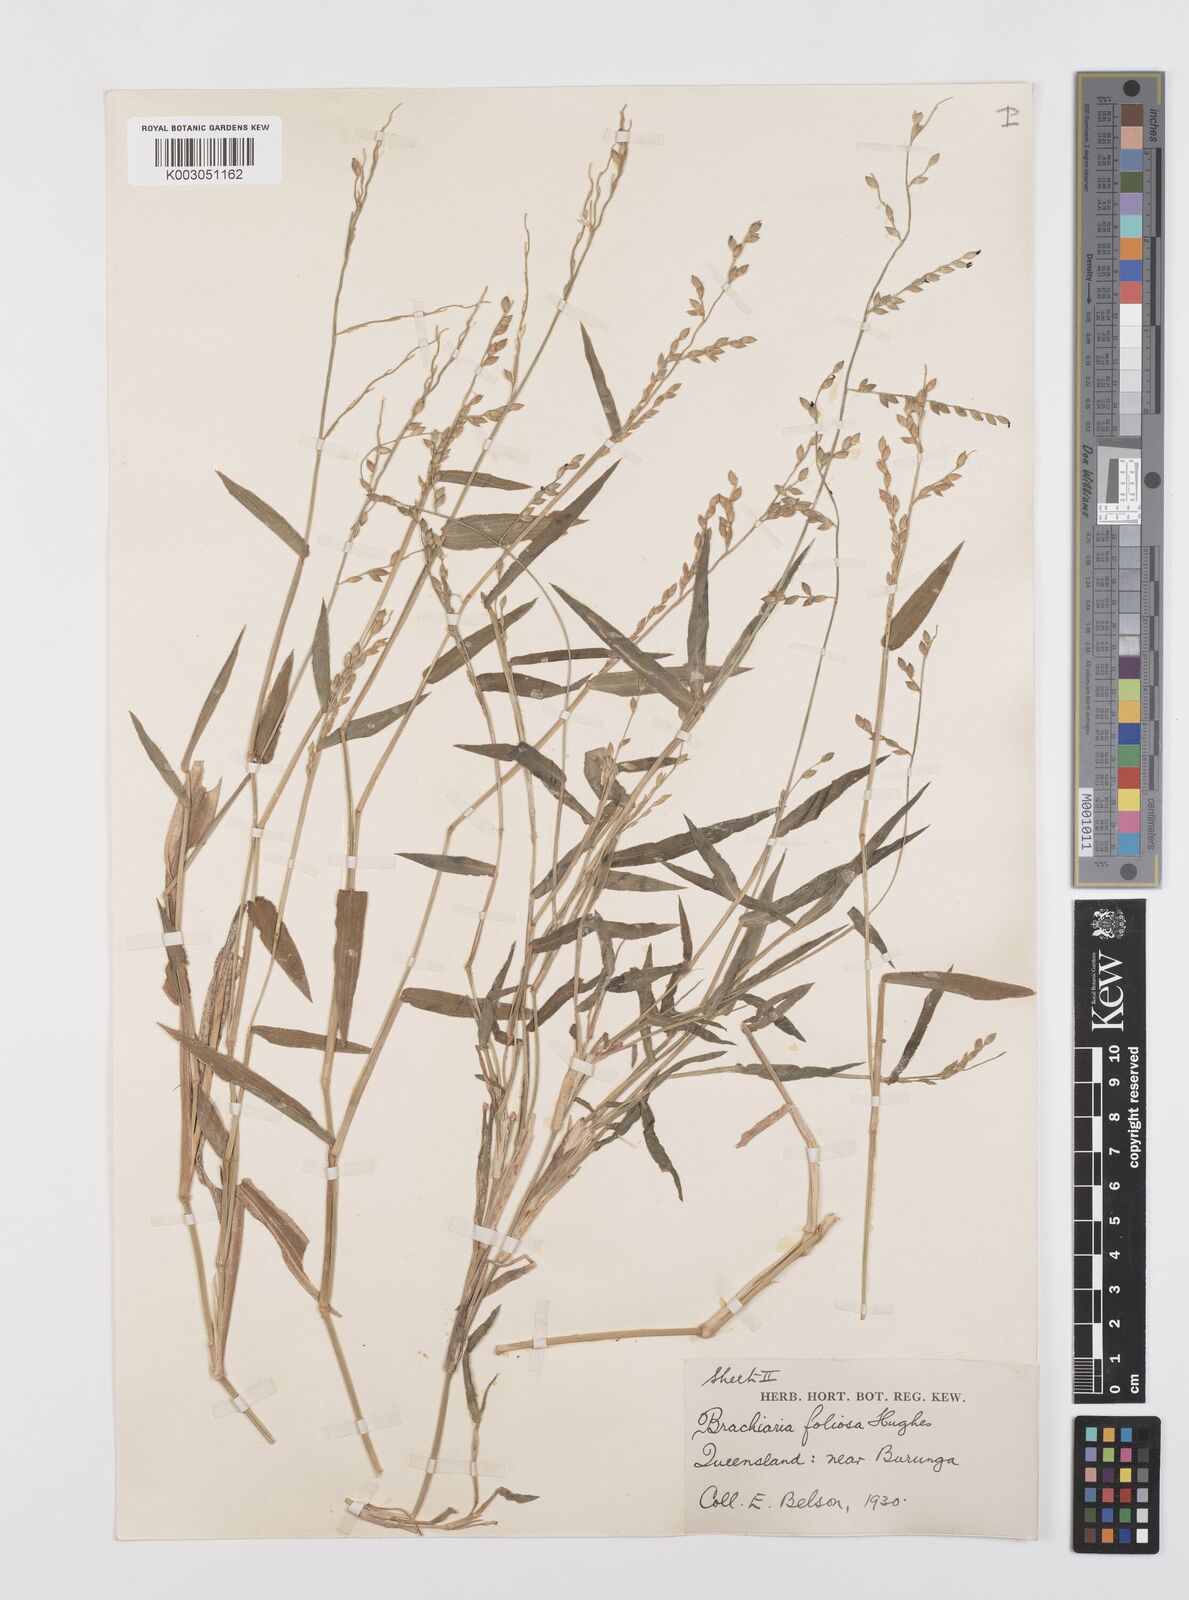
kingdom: Plantae
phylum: Tracheophyta
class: Liliopsida
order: Poales
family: Poaceae
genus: Urochloa
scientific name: Urochloa foliosa
